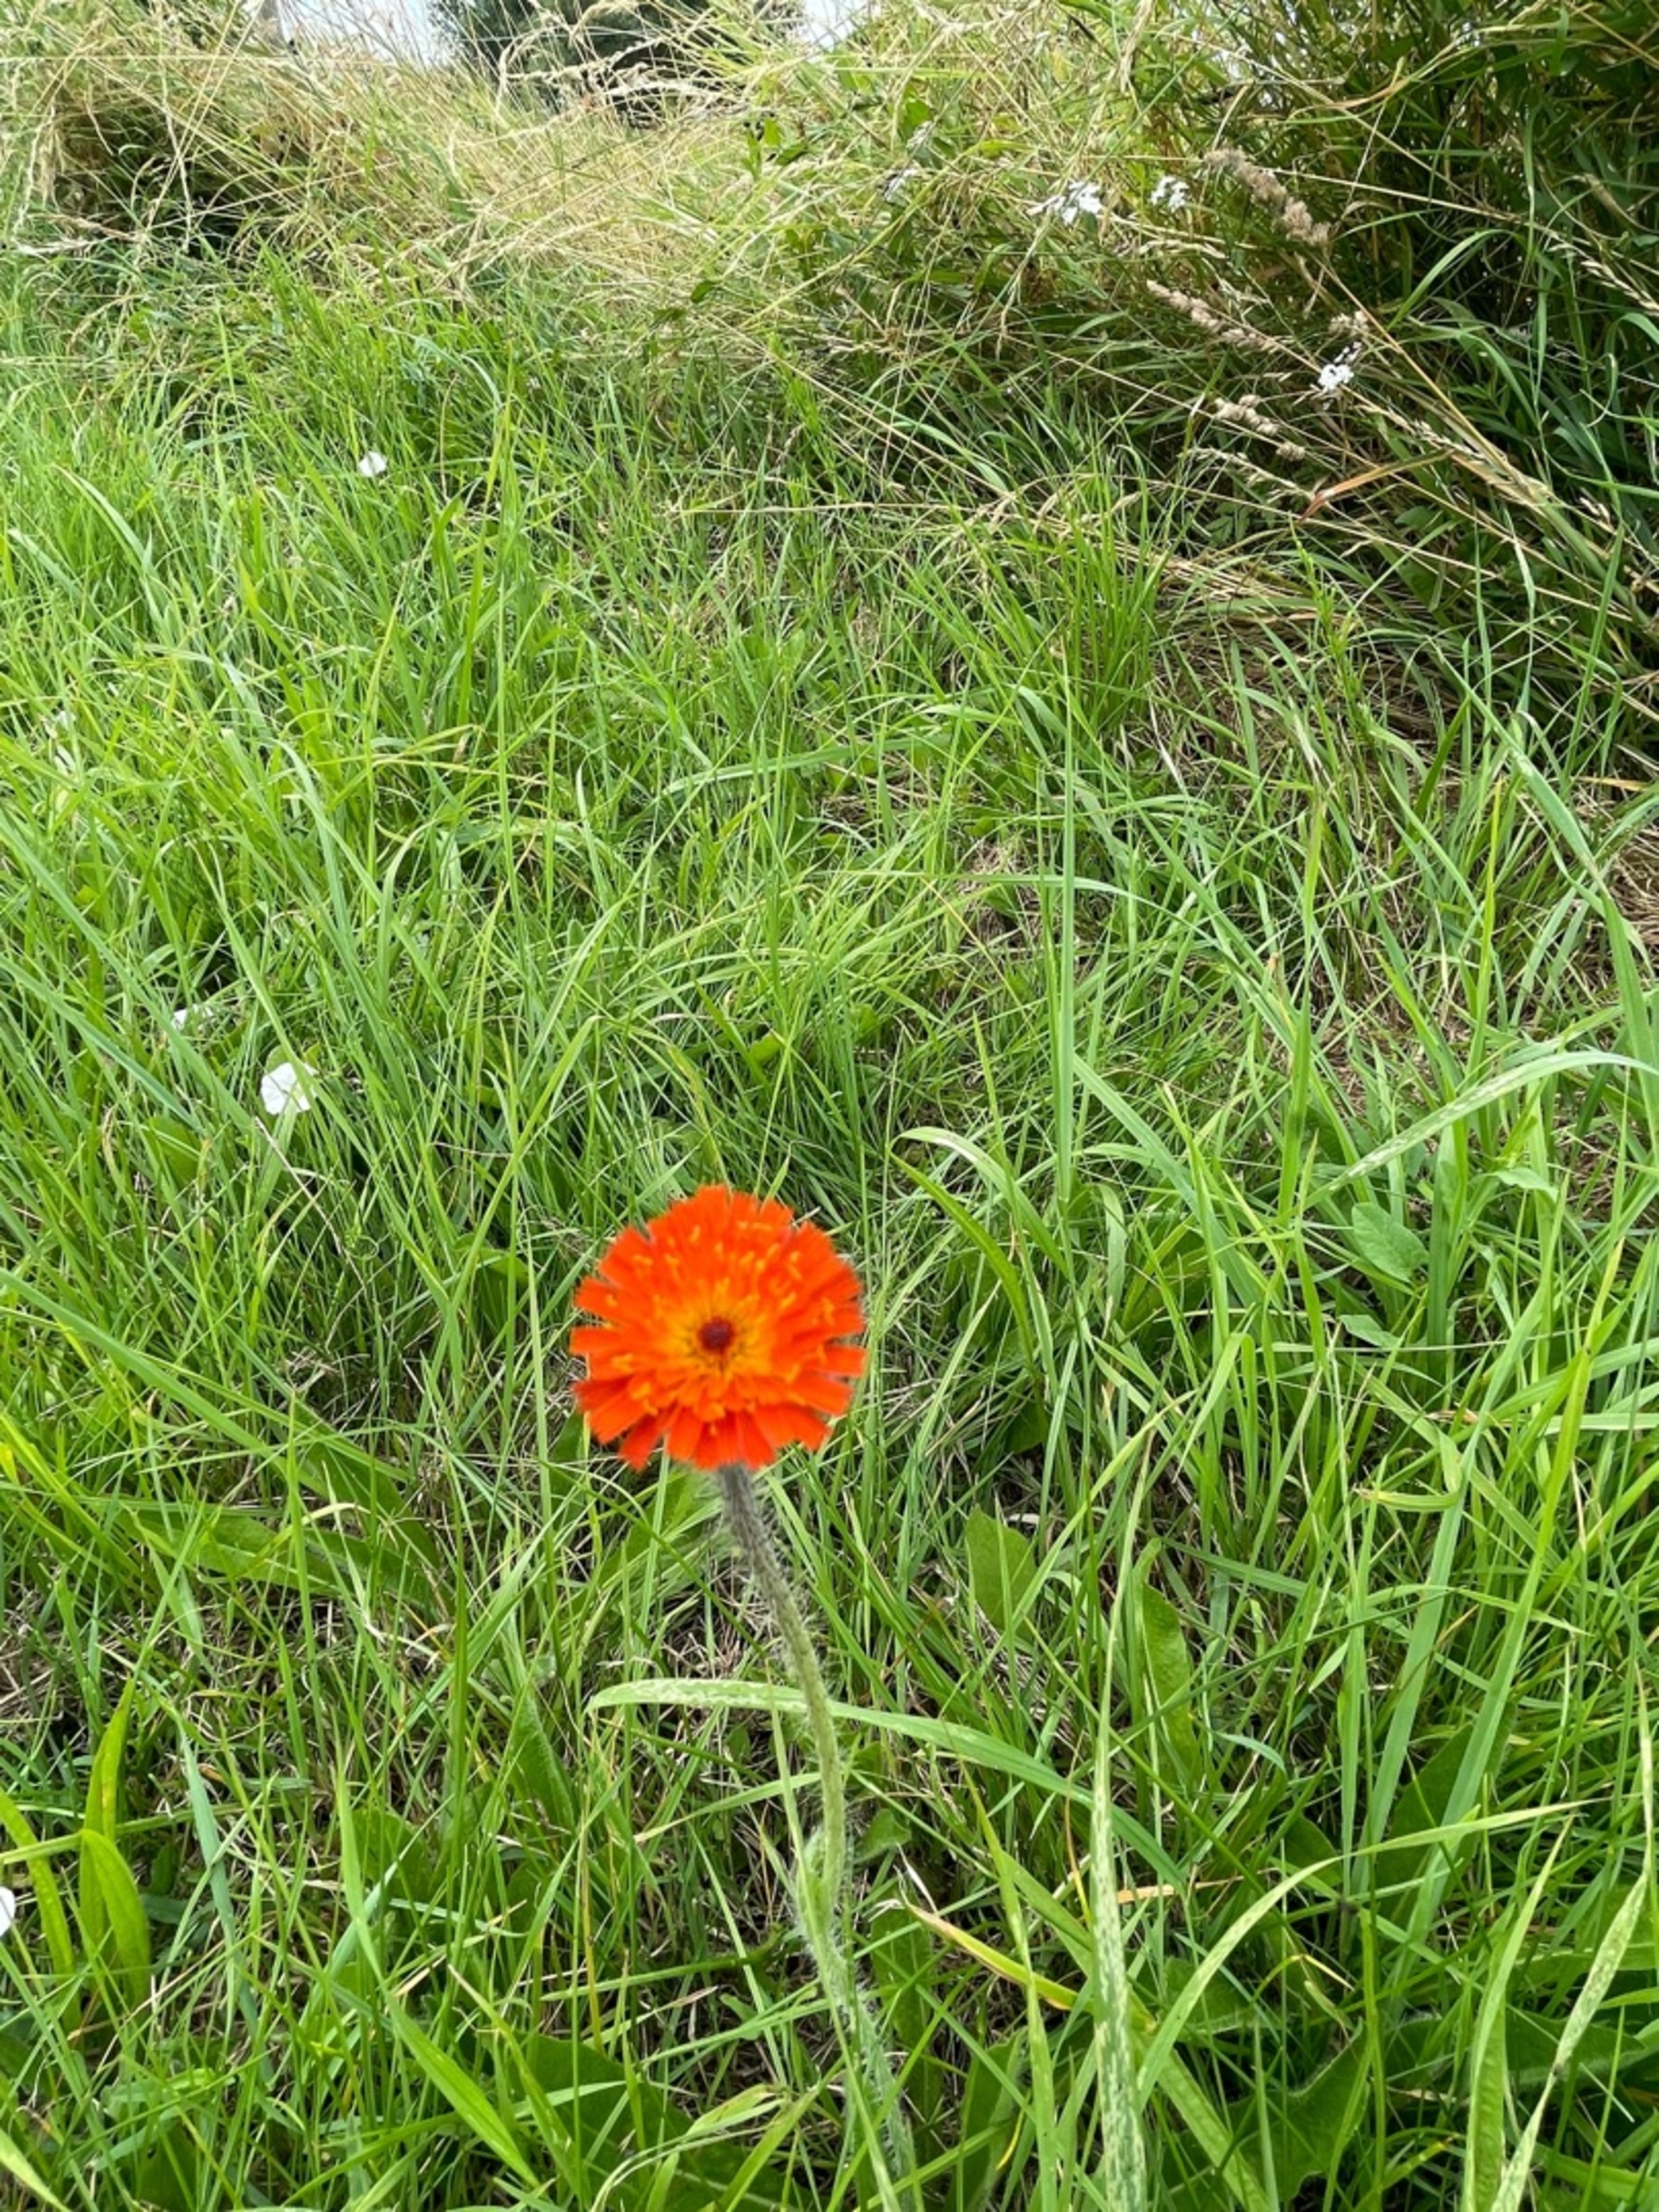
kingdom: Plantae
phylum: Tracheophyta
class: Magnoliopsida
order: Asterales
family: Asteraceae
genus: Pilosella
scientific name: Pilosella aurantiaca
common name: Pomerans-høgeurt
